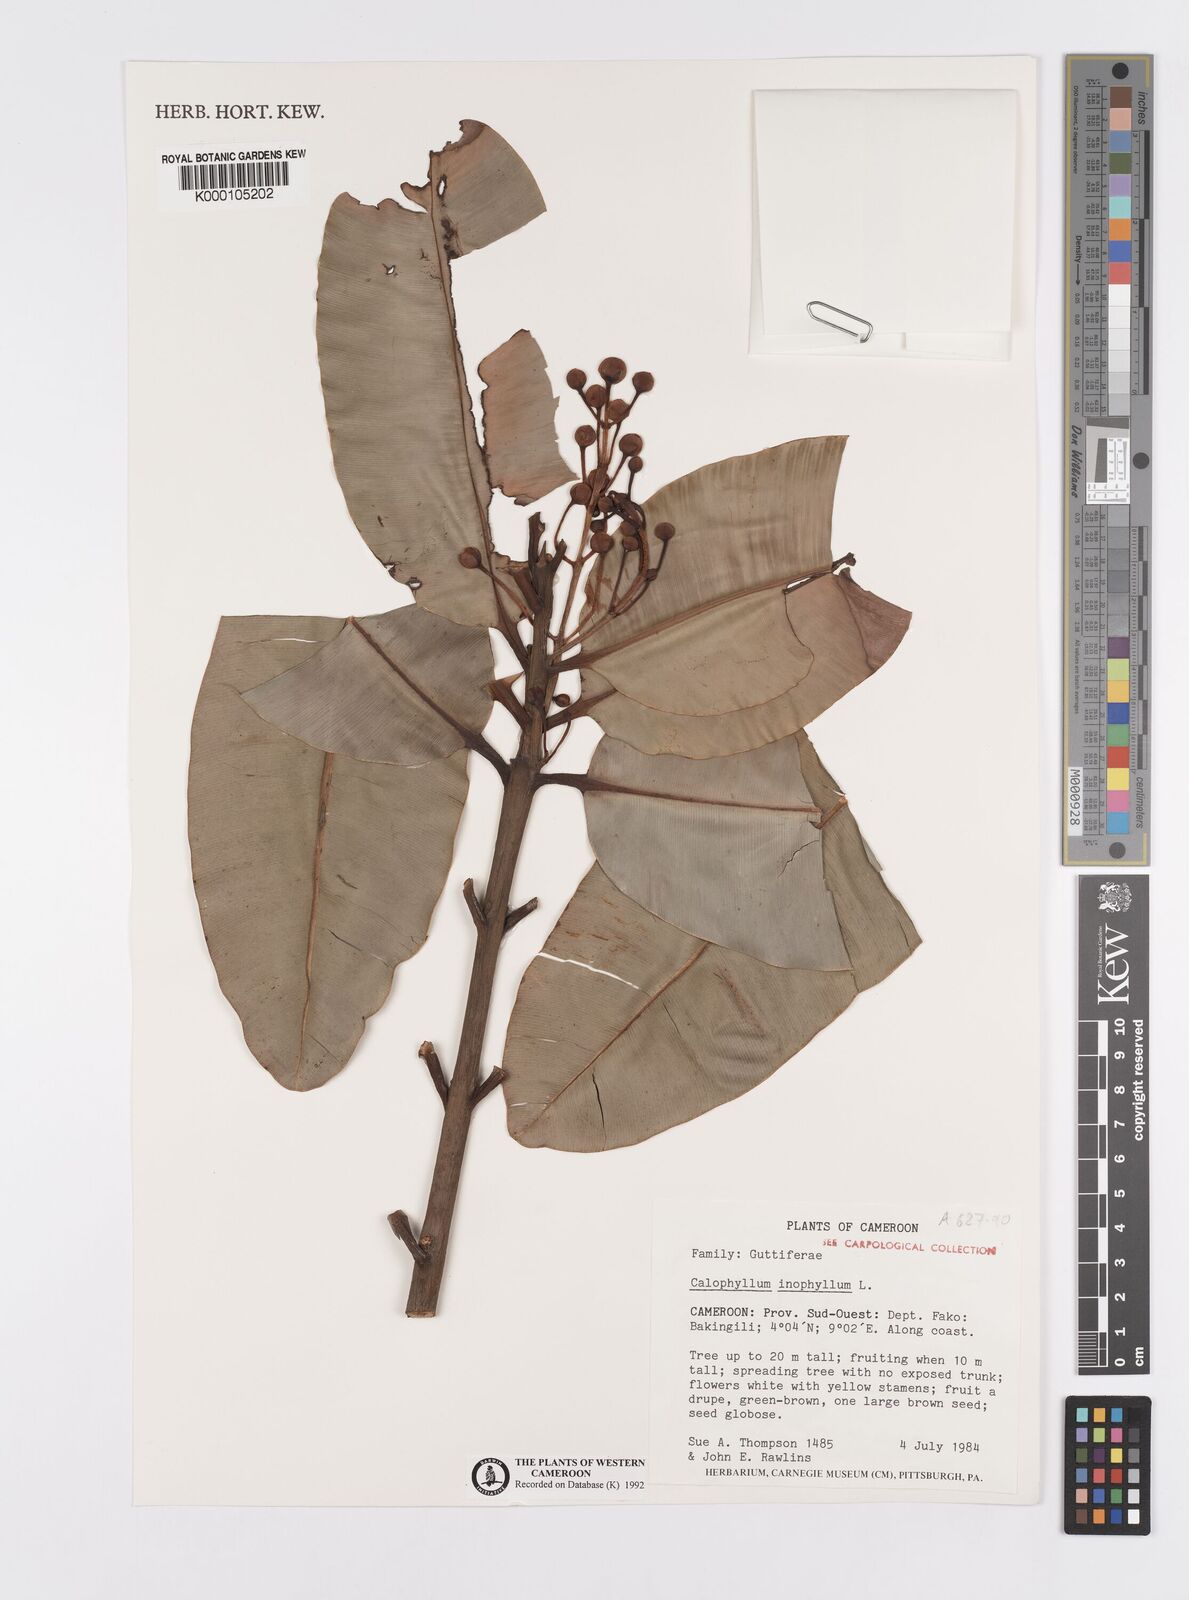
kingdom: Plantae
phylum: Tracheophyta
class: Magnoliopsida
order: Malpighiales
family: Calophyllaceae
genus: Calophyllum
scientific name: Calophyllum inophyllum
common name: Alexandrian laurel
